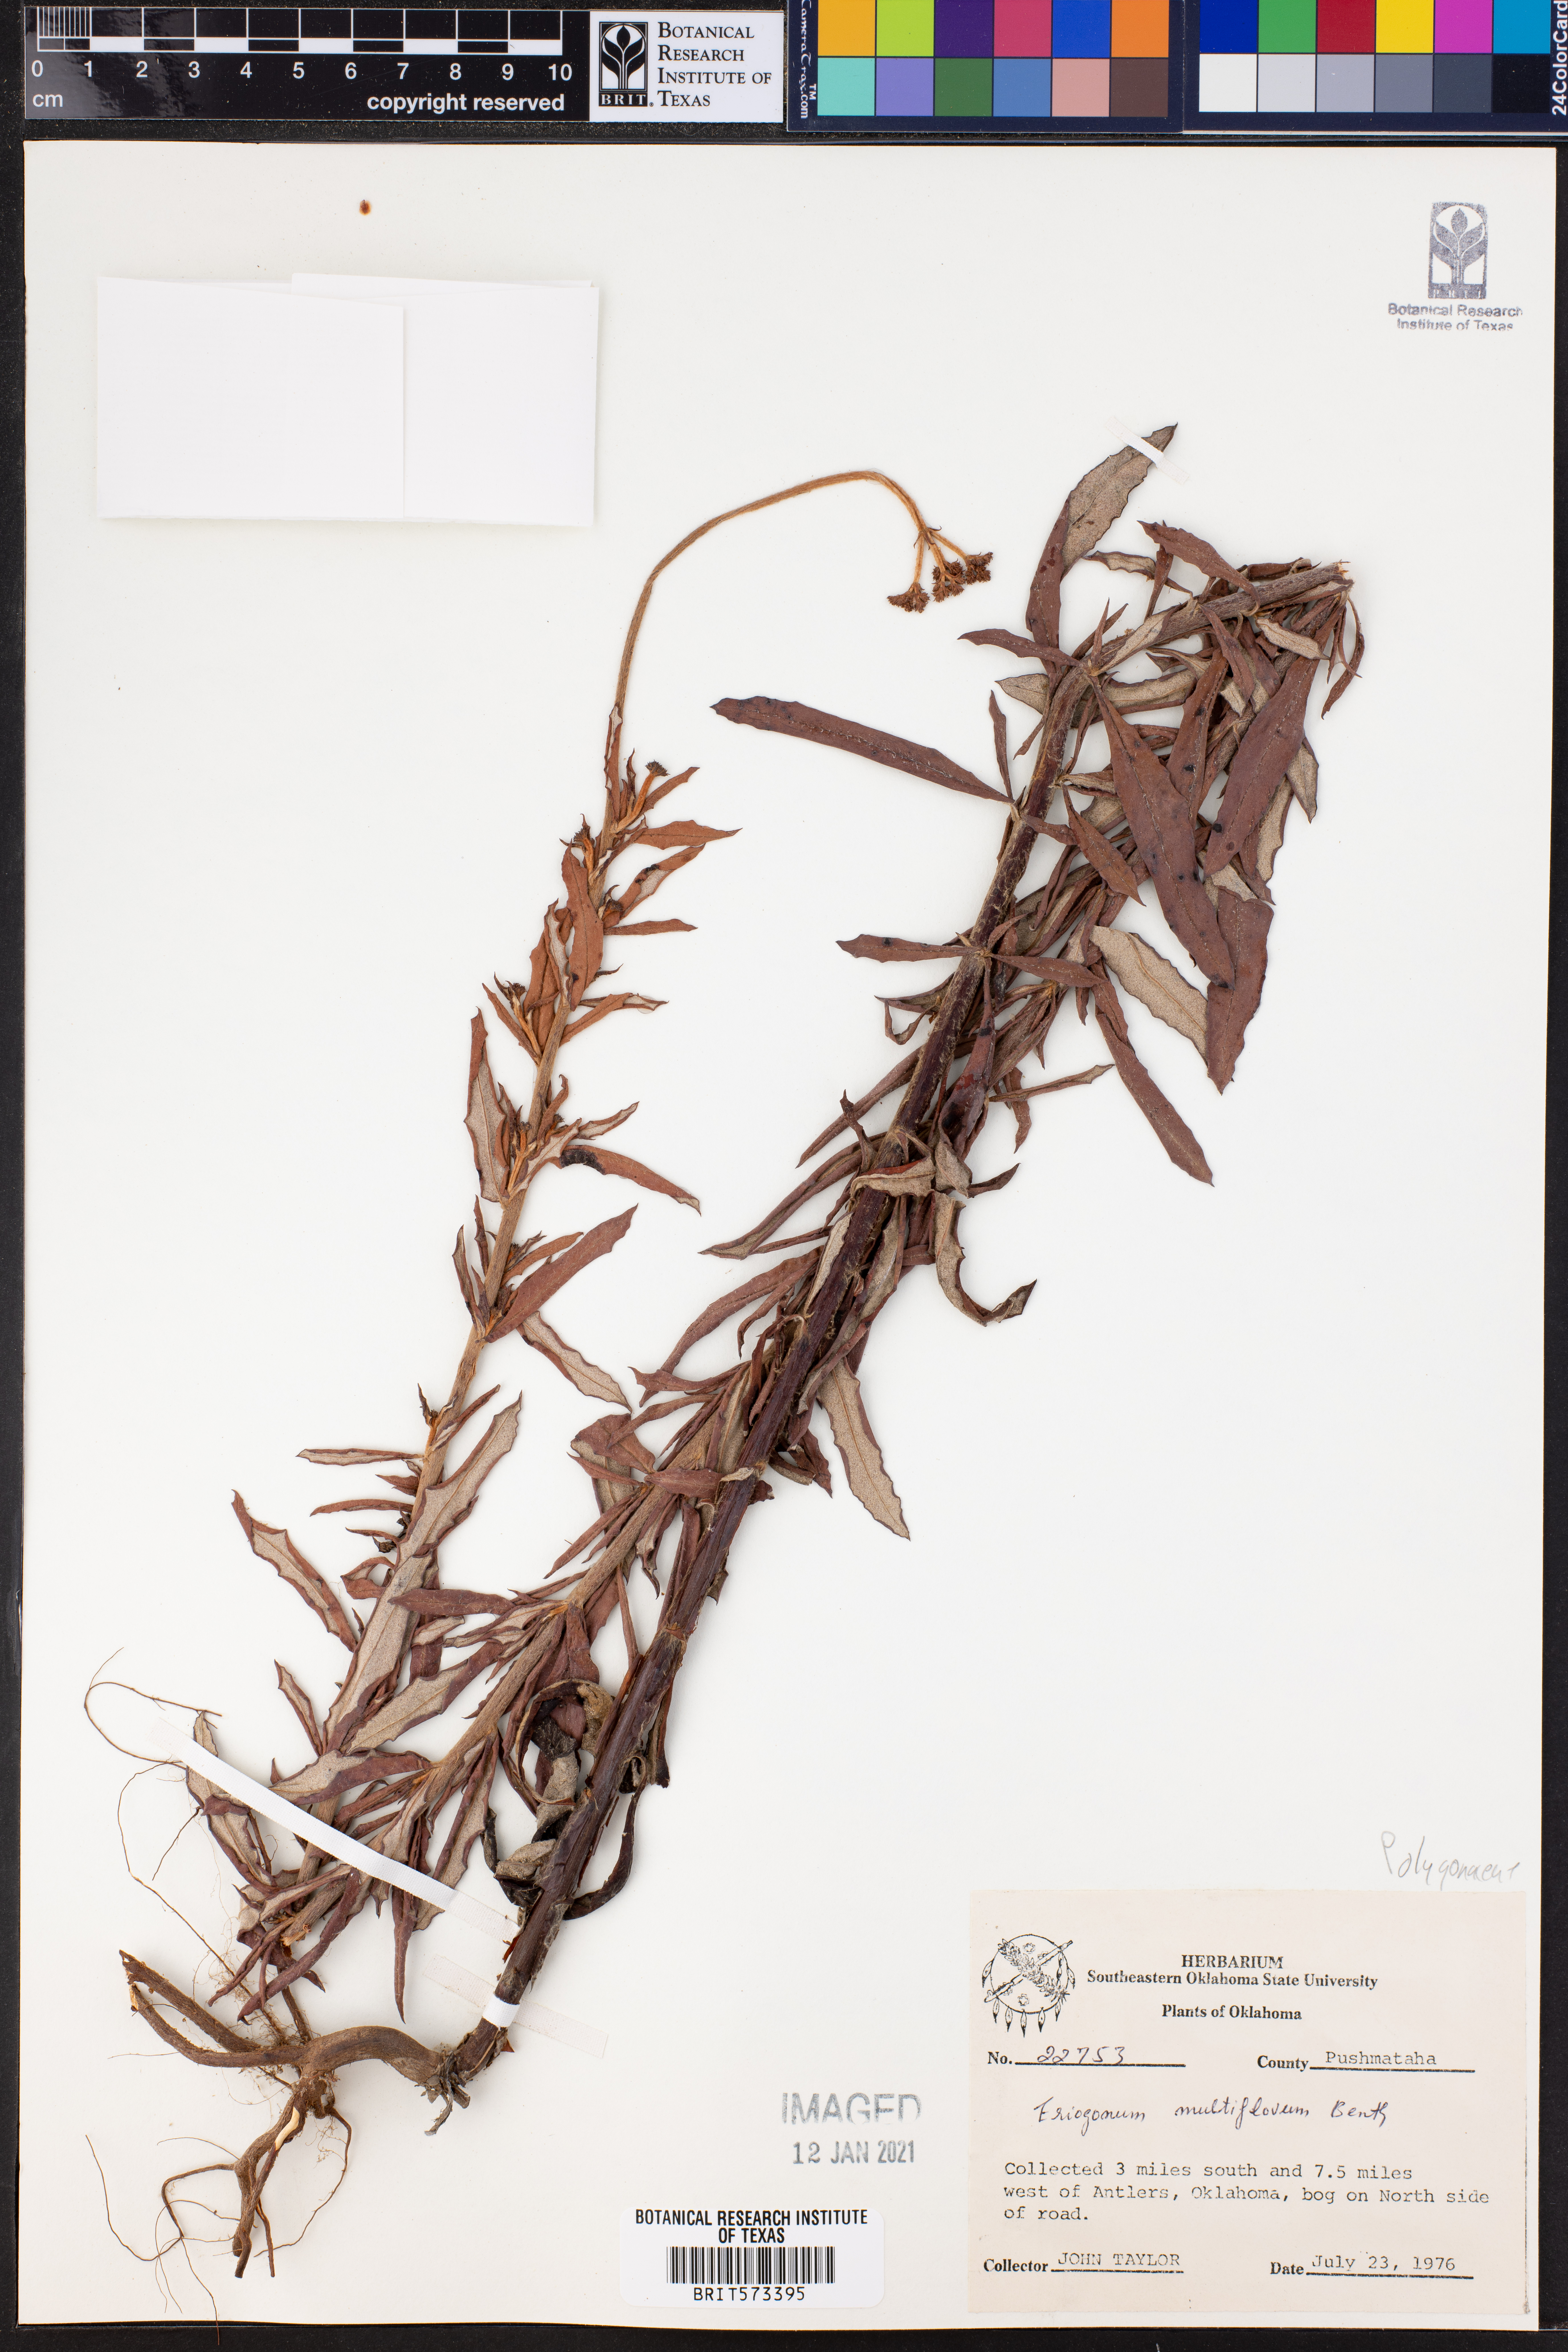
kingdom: Plantae
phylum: Tracheophyta
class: Magnoliopsida
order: Caryophyllales
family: Polygonaceae
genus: Eriogonum
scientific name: Eriogonum multiflorum
